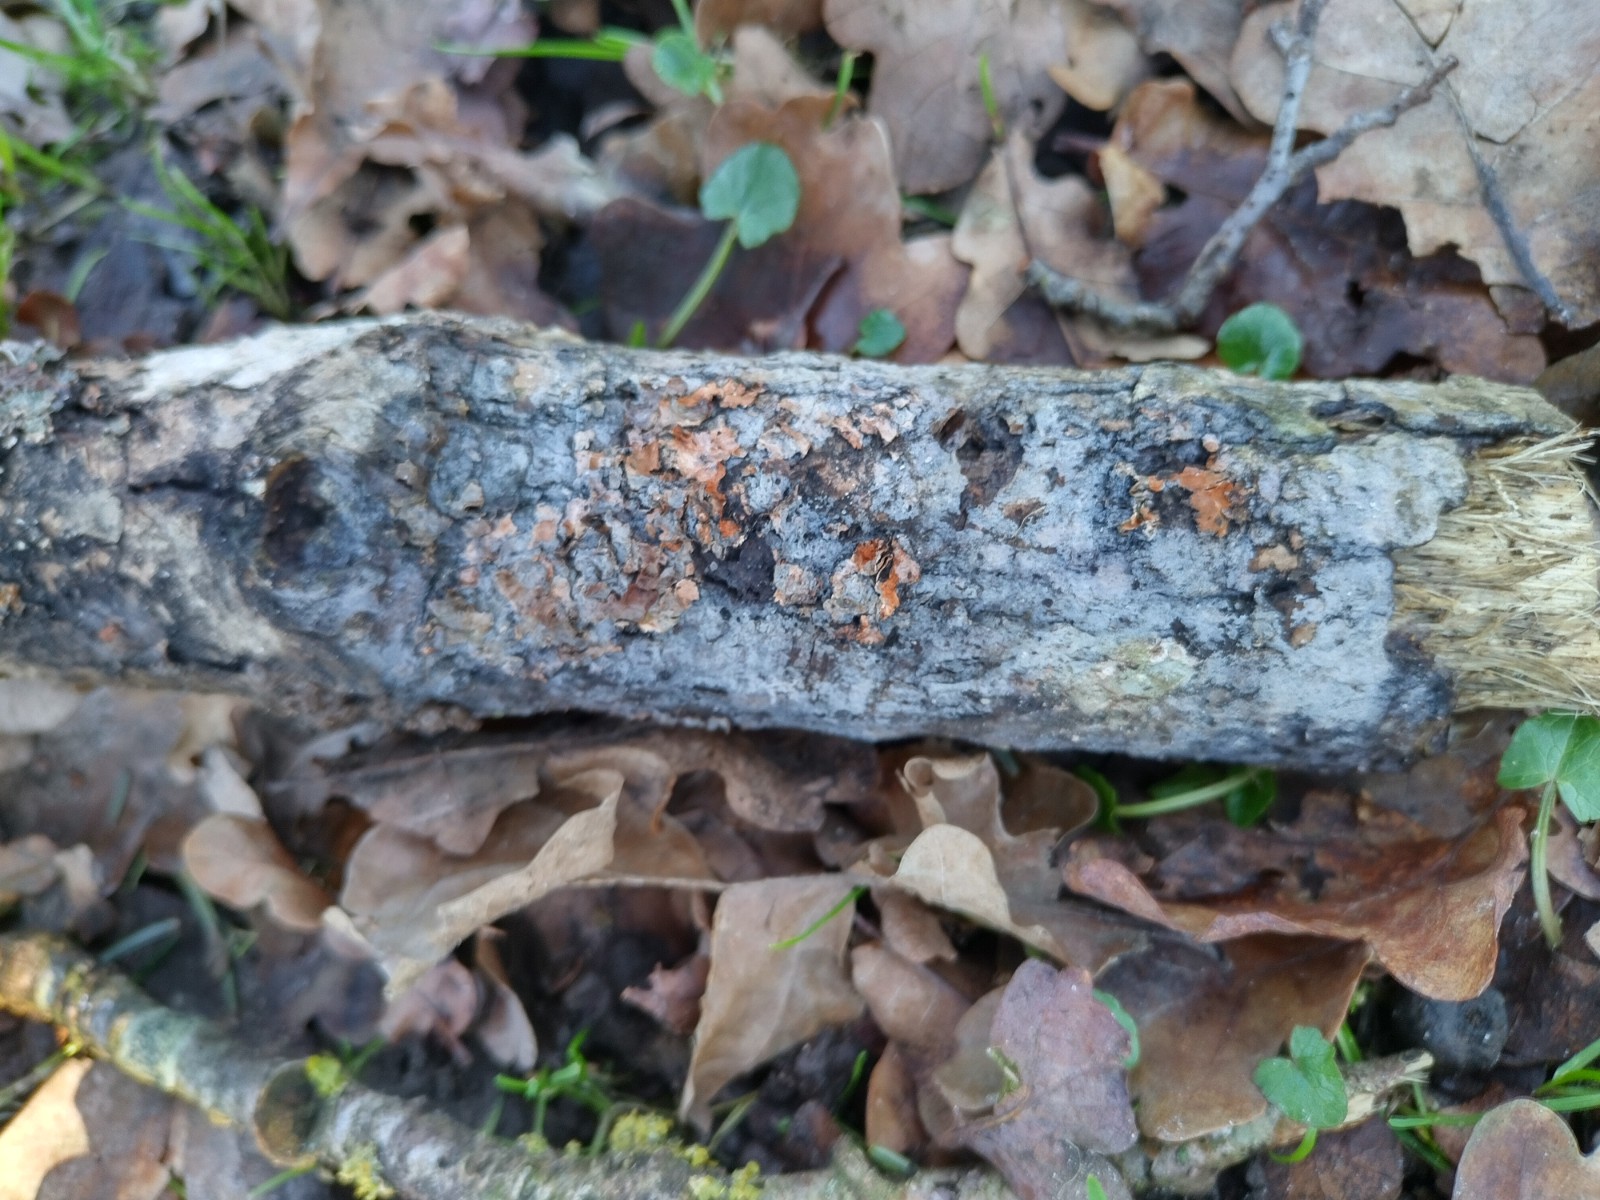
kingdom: Fungi
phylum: Basidiomycota
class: Agaricomycetes
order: Corticiales
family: Corticiaceae
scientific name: Corticiaceae
